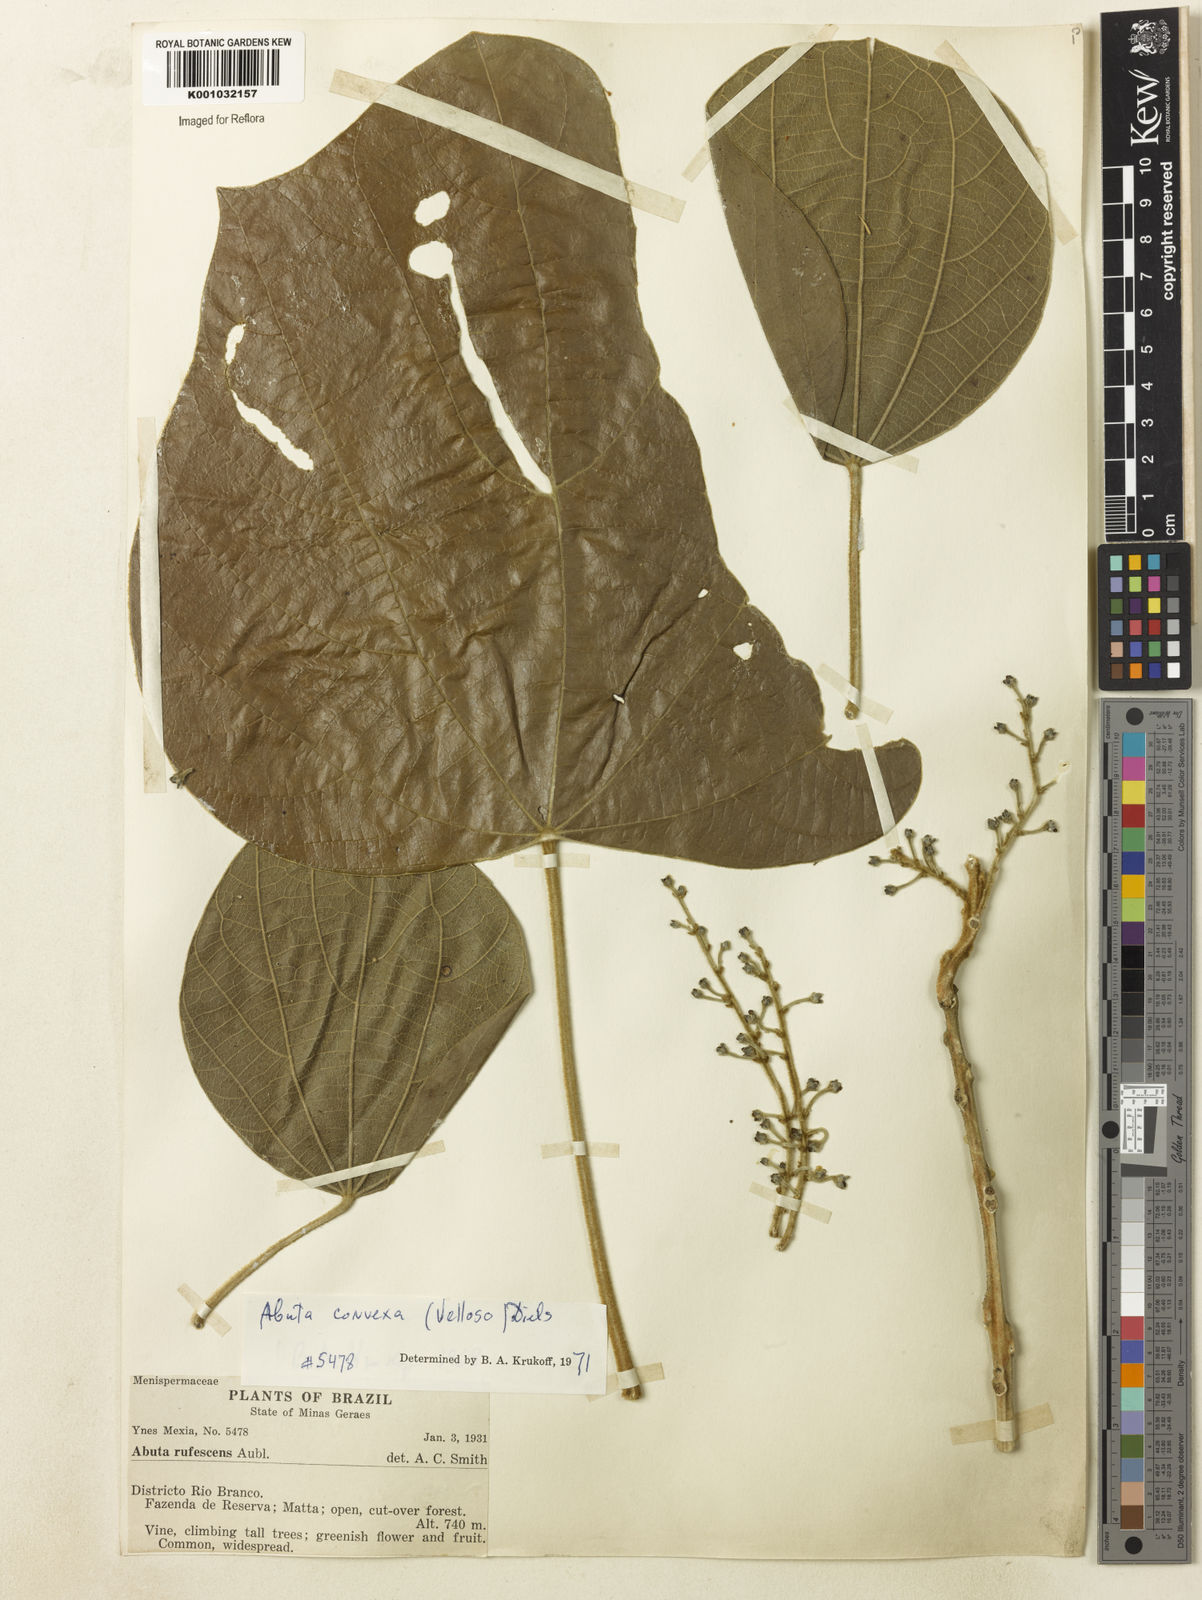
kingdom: Plantae
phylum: Tracheophyta
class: Magnoliopsida
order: Ranunculales
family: Menispermaceae
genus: Abuta
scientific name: Abuta rufescens
